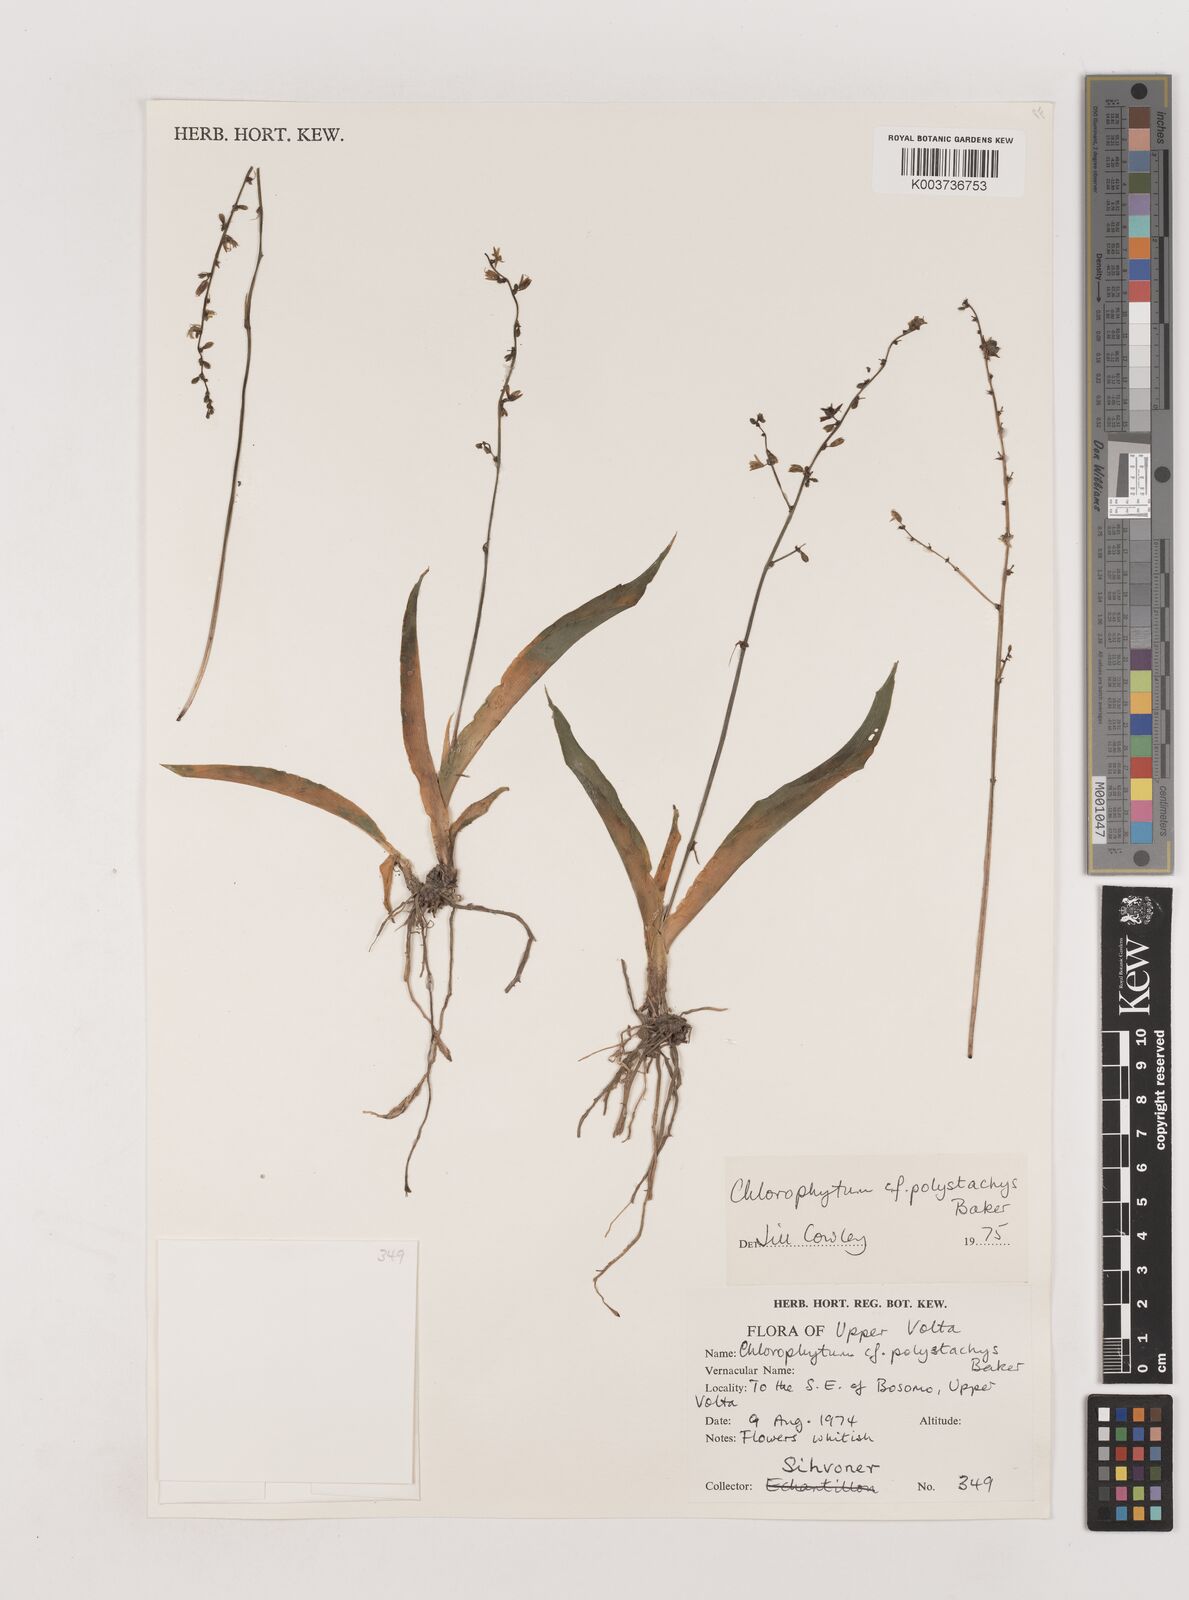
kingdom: Plantae
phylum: Tracheophyta
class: Liliopsida
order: Asparagales
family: Asparagaceae
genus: Chlorophytum
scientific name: Chlorophytum polystachys
